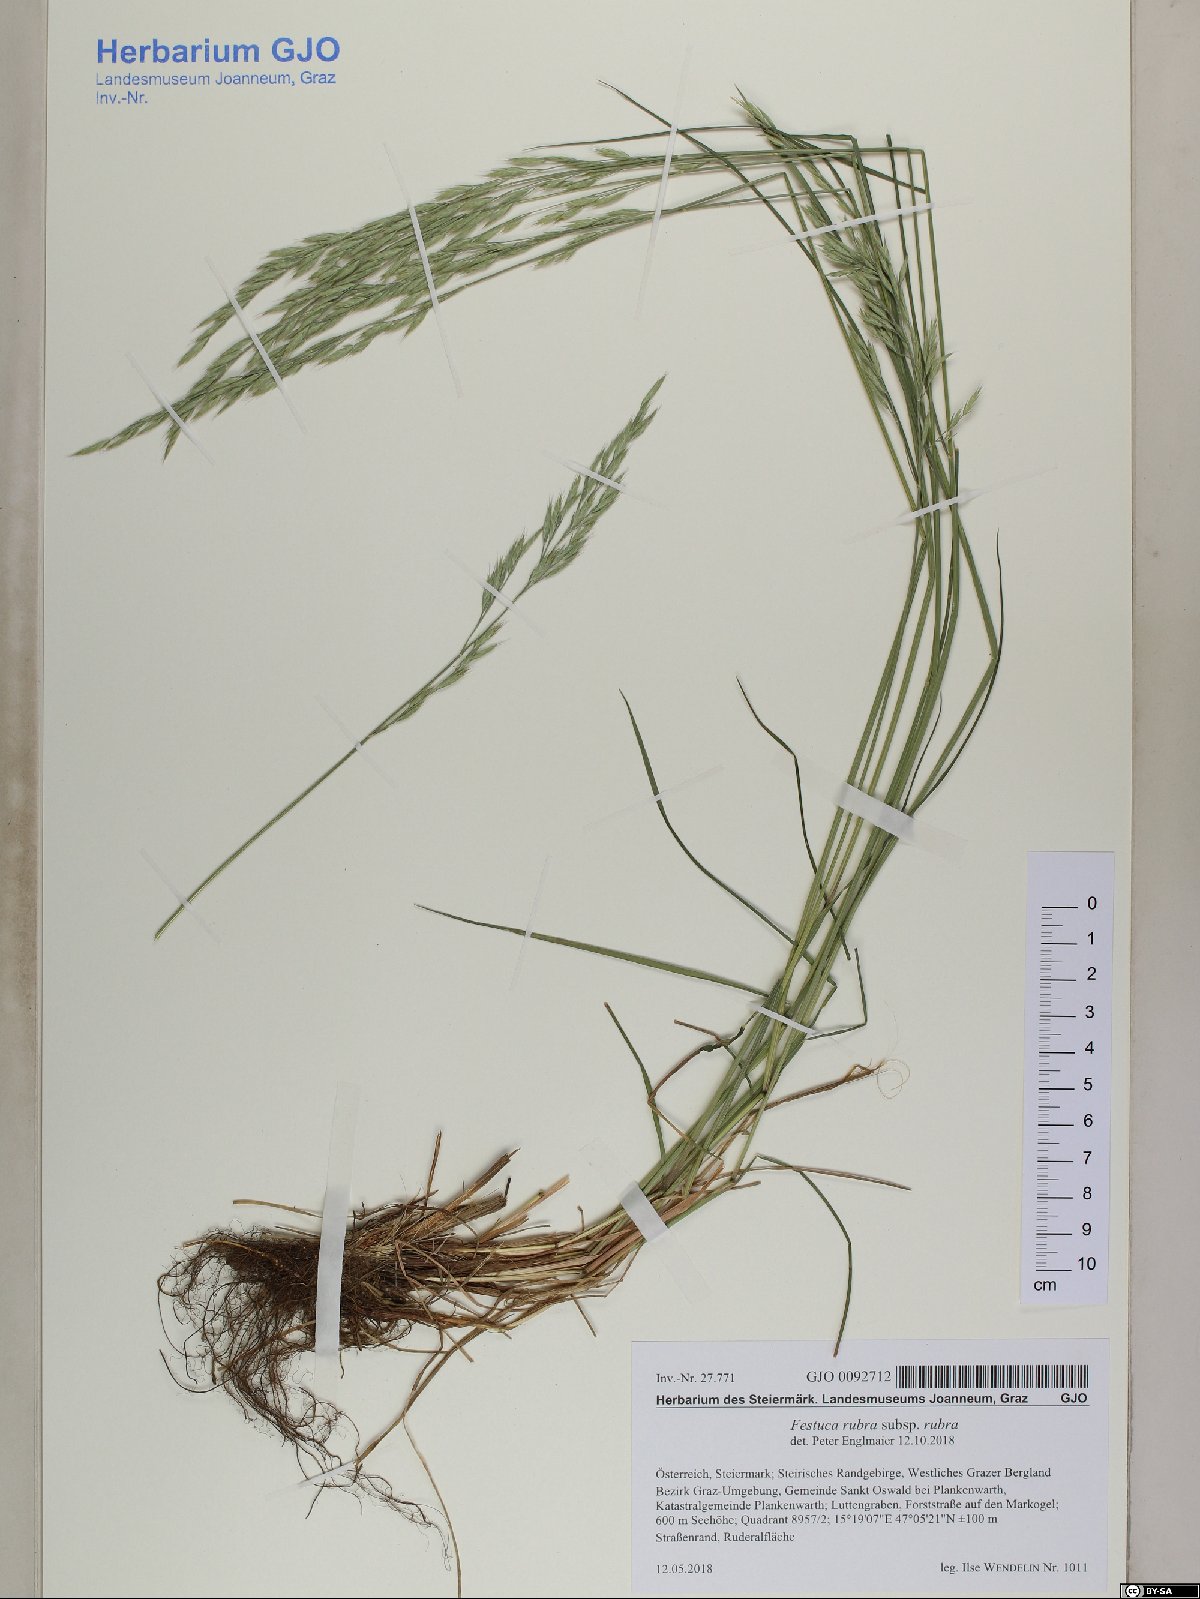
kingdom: Plantae
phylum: Tracheophyta
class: Liliopsida
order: Poales
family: Poaceae
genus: Festuca
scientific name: Festuca rubra
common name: Red fescue
